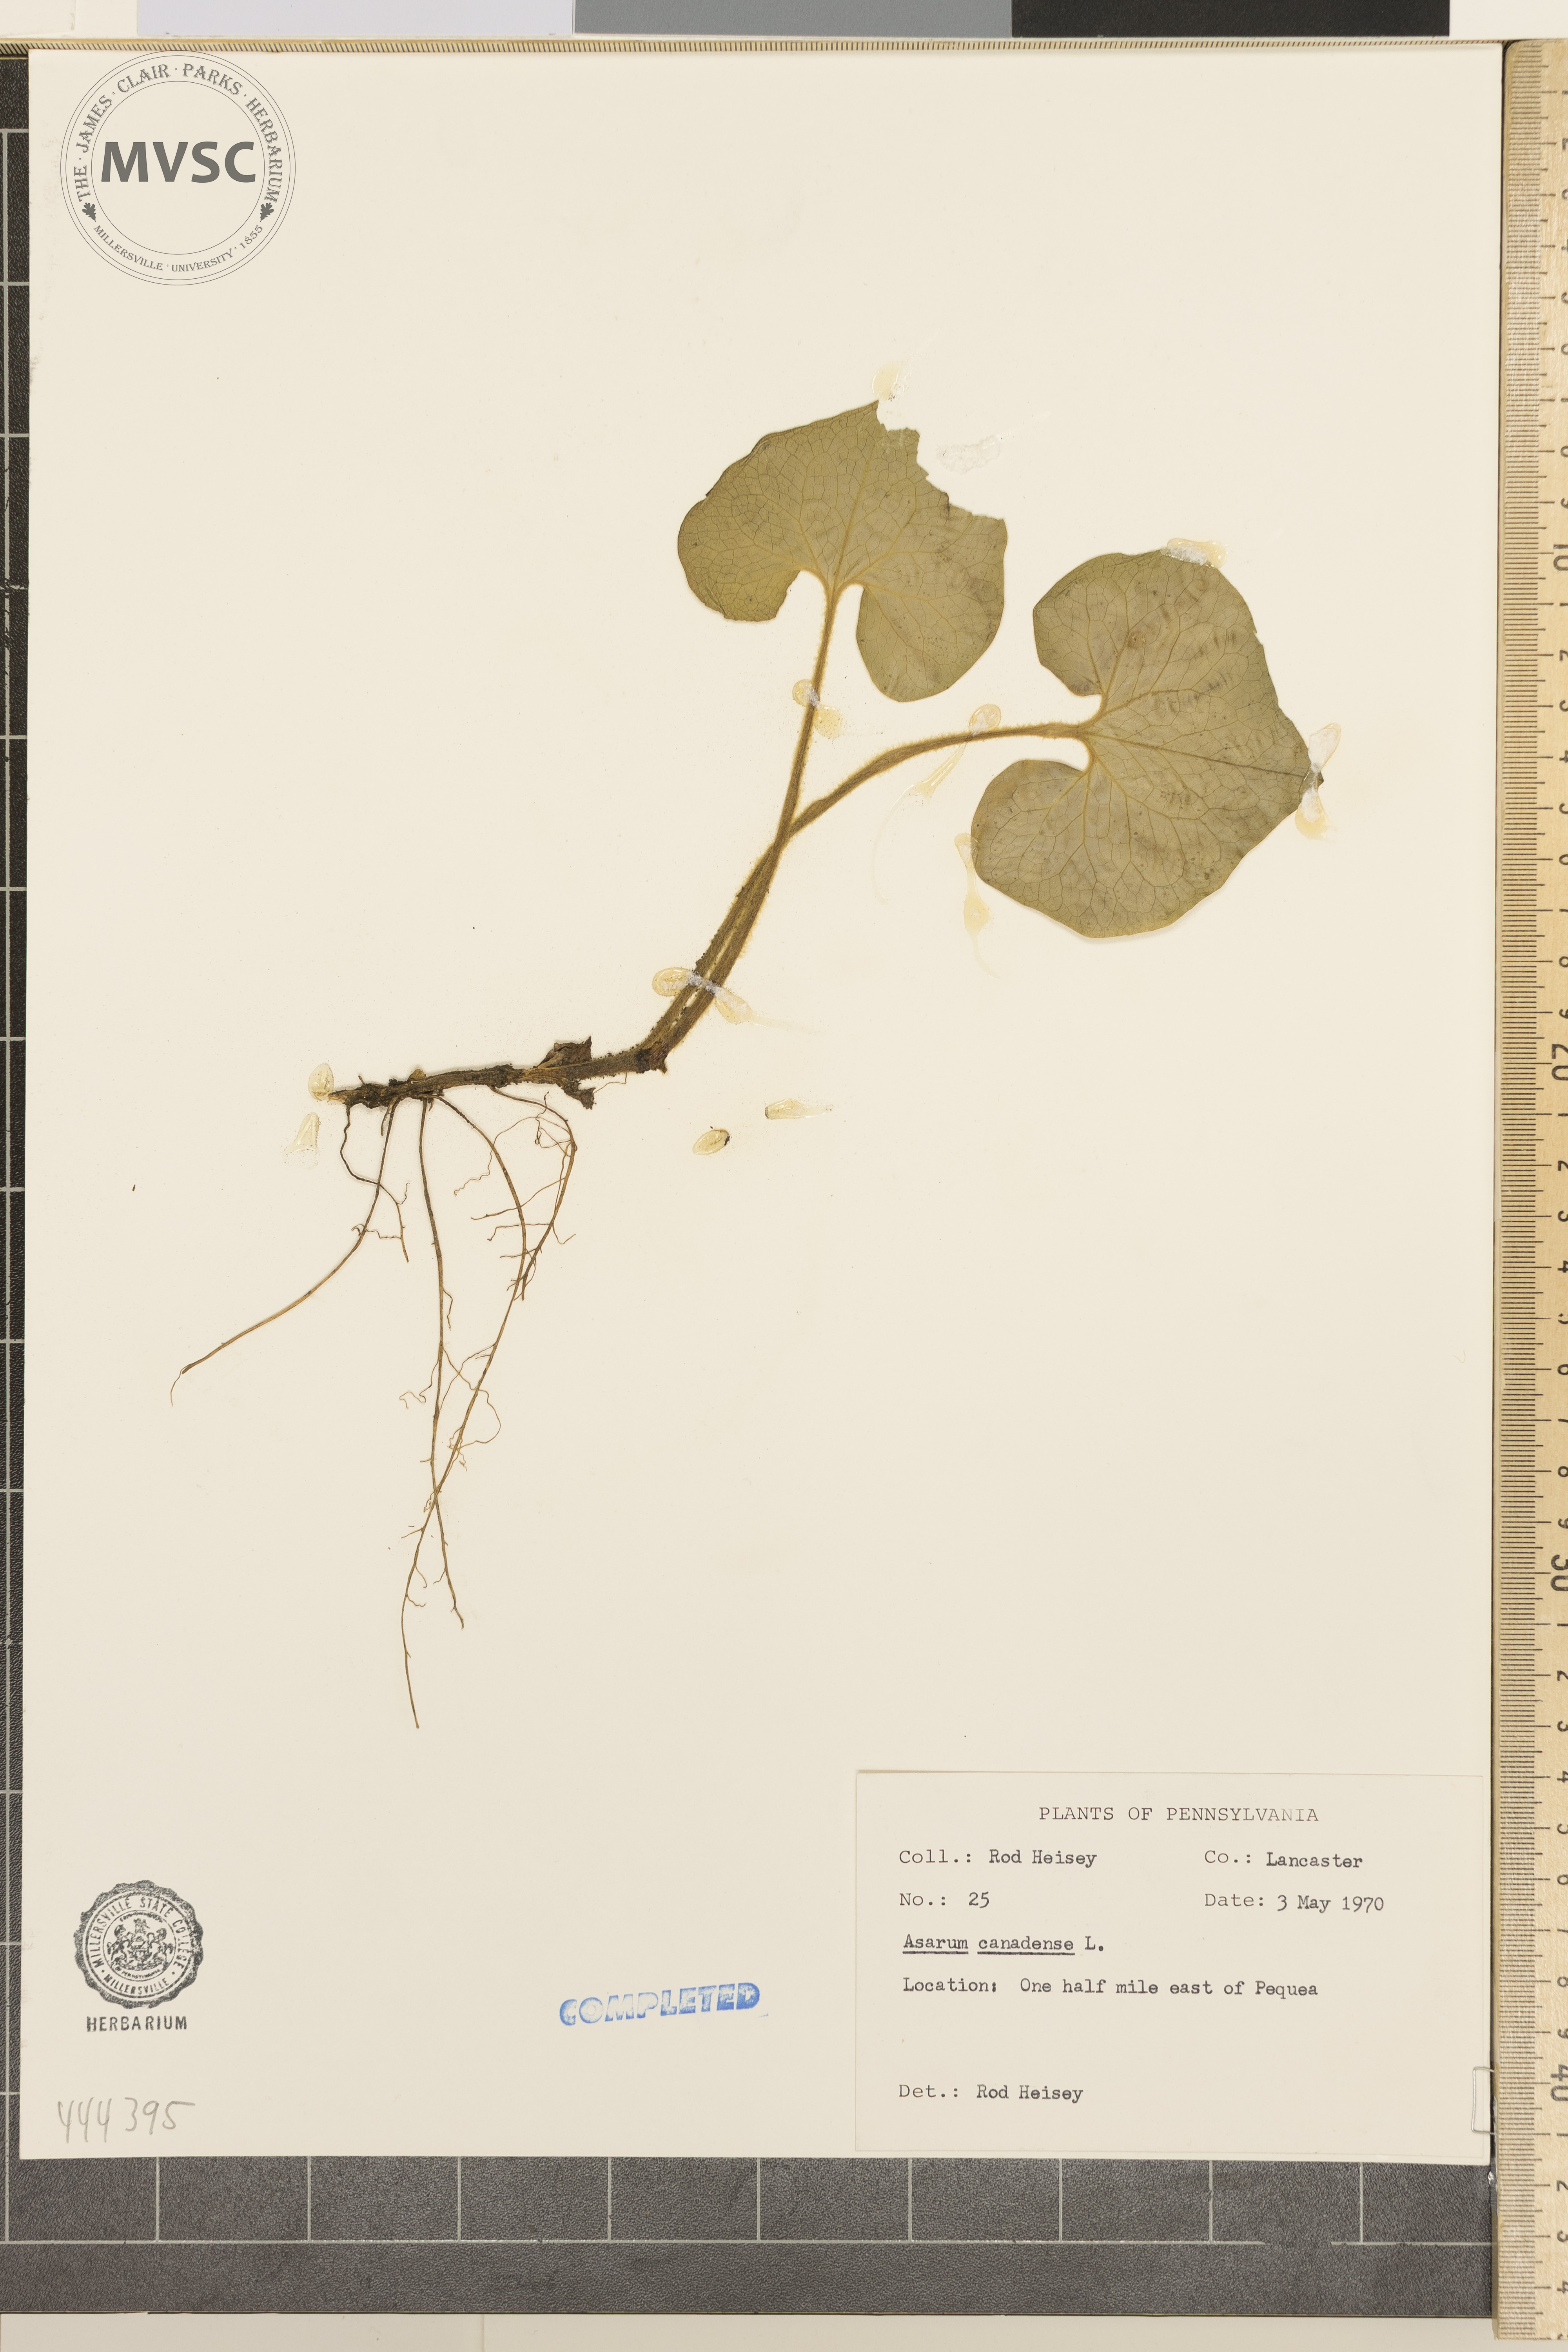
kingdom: Plantae
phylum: Tracheophyta
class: Magnoliopsida
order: Piperales
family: Aristolochiaceae
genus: Asarum
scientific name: Asarum canadense
